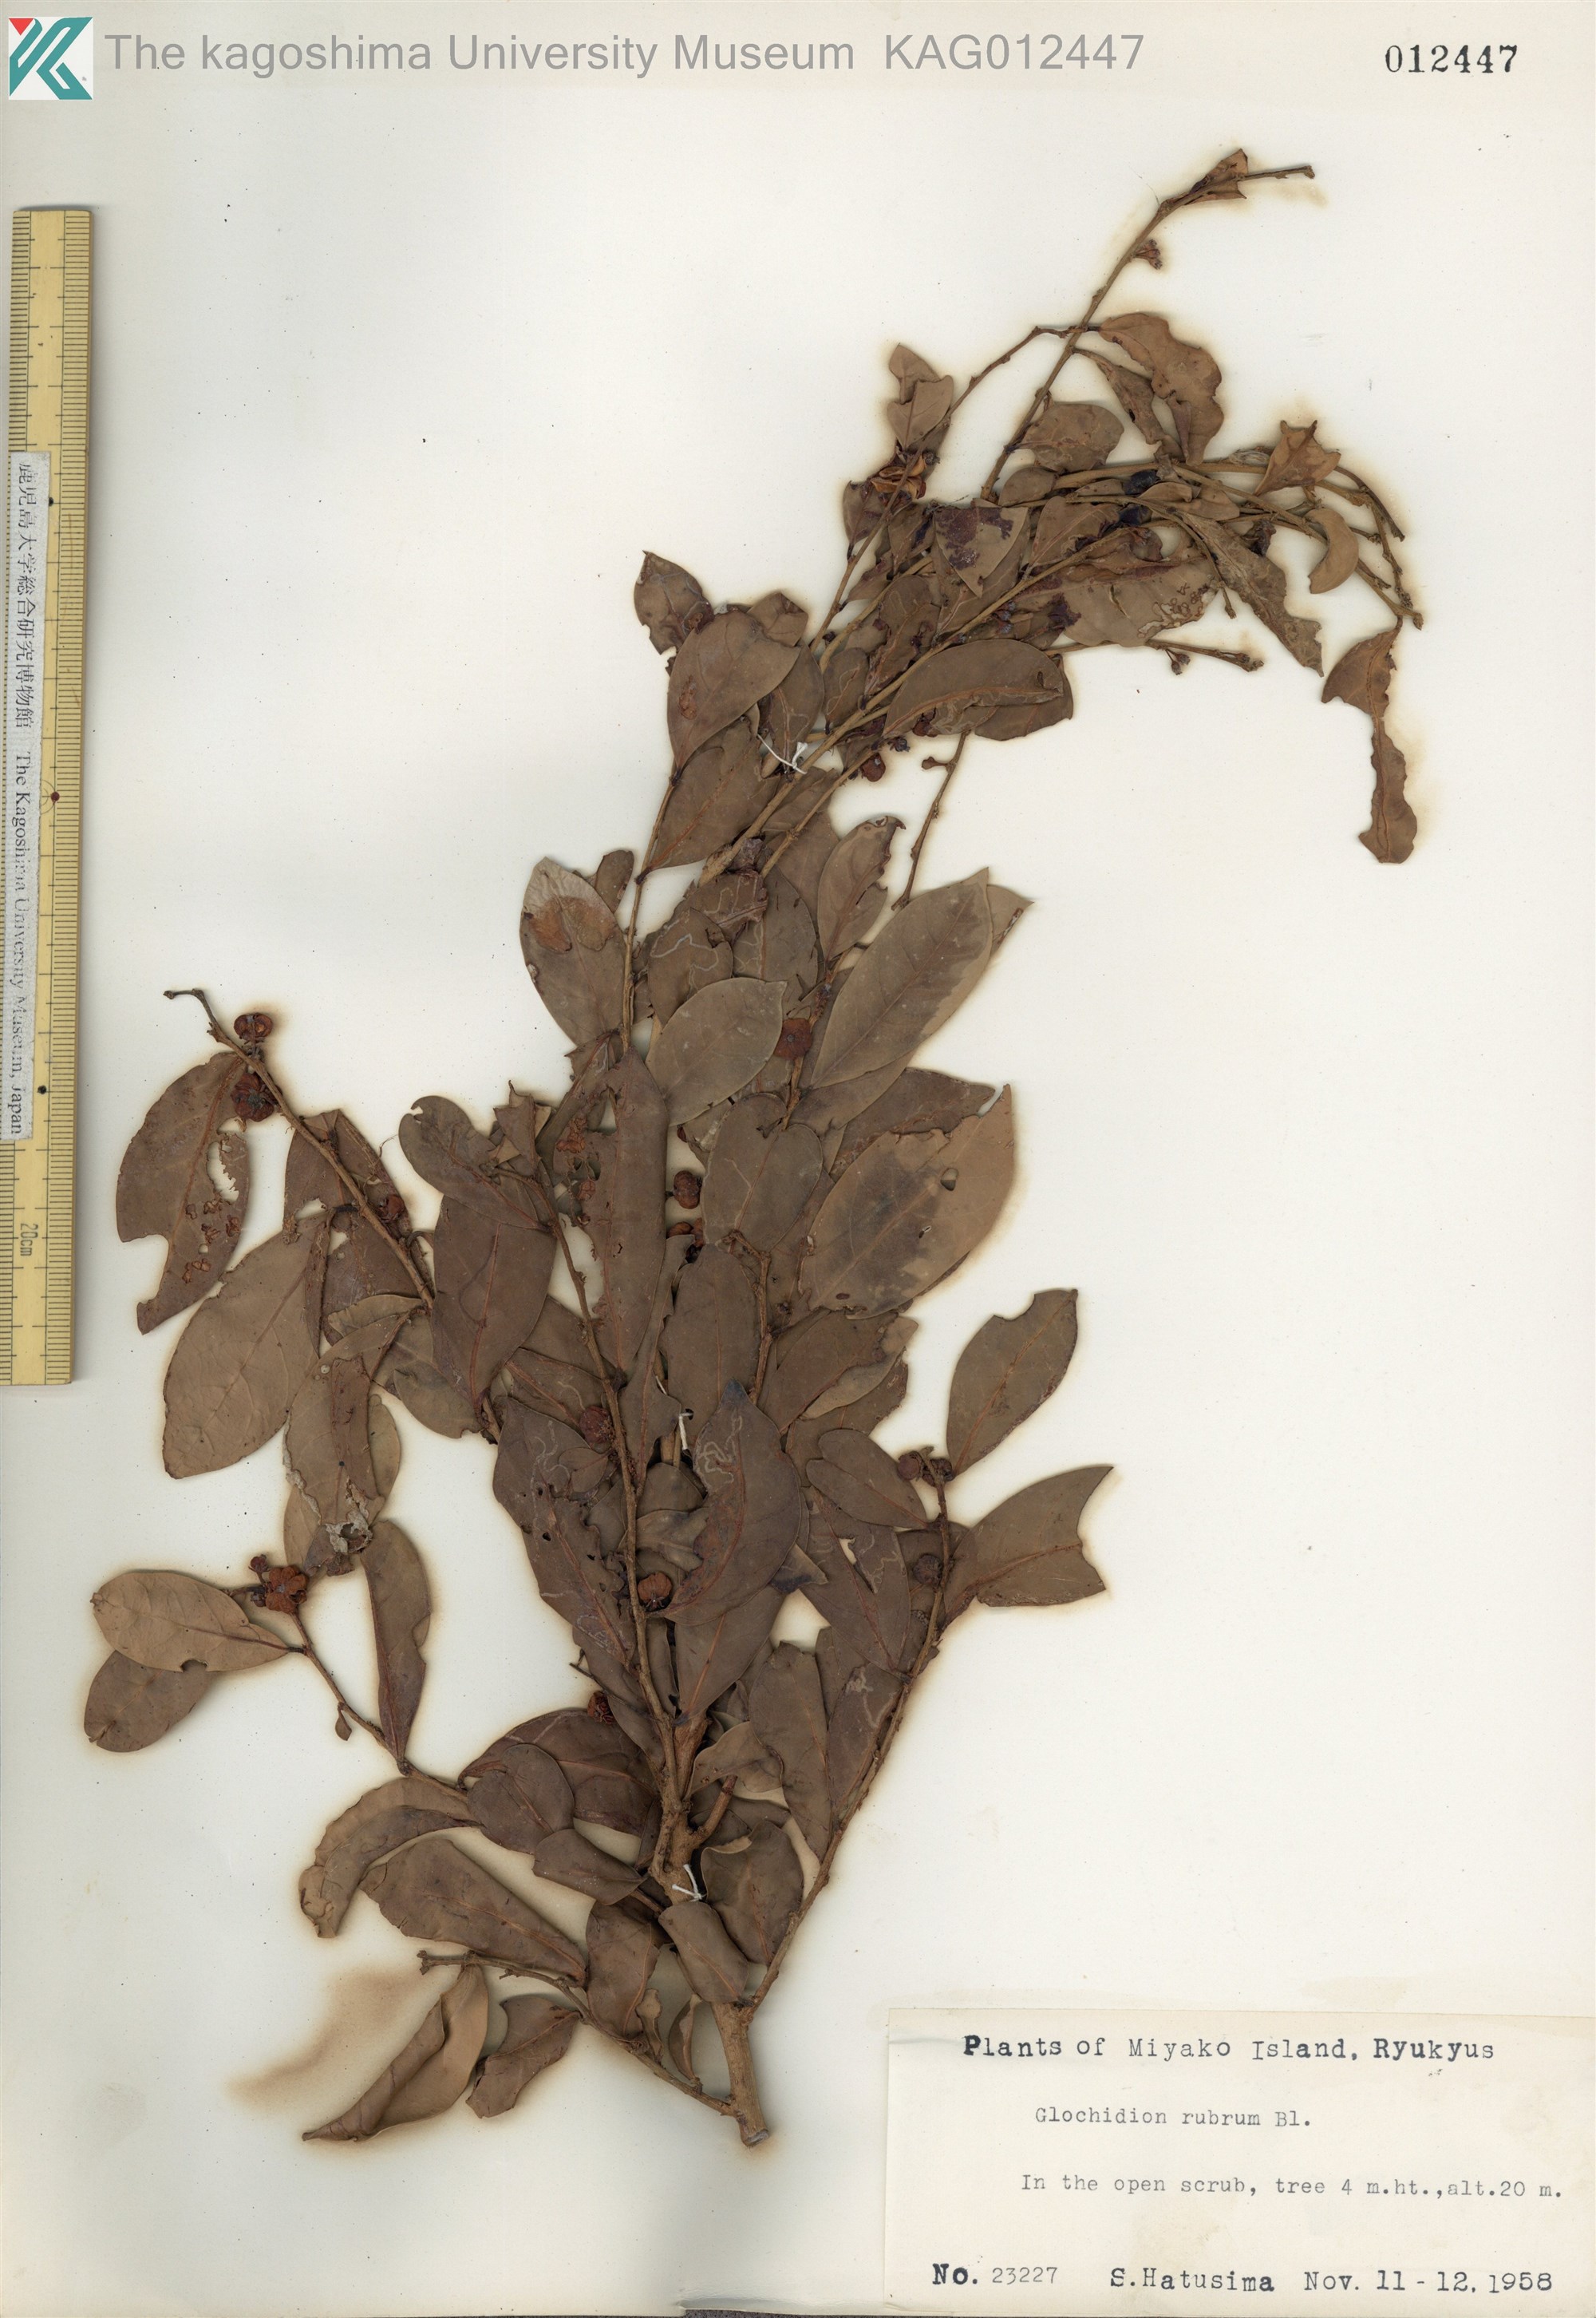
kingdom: Plantae
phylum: Tracheophyta
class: Magnoliopsida
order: Malpighiales
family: Phyllanthaceae
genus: Glochidion
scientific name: Glochidion rubrum
